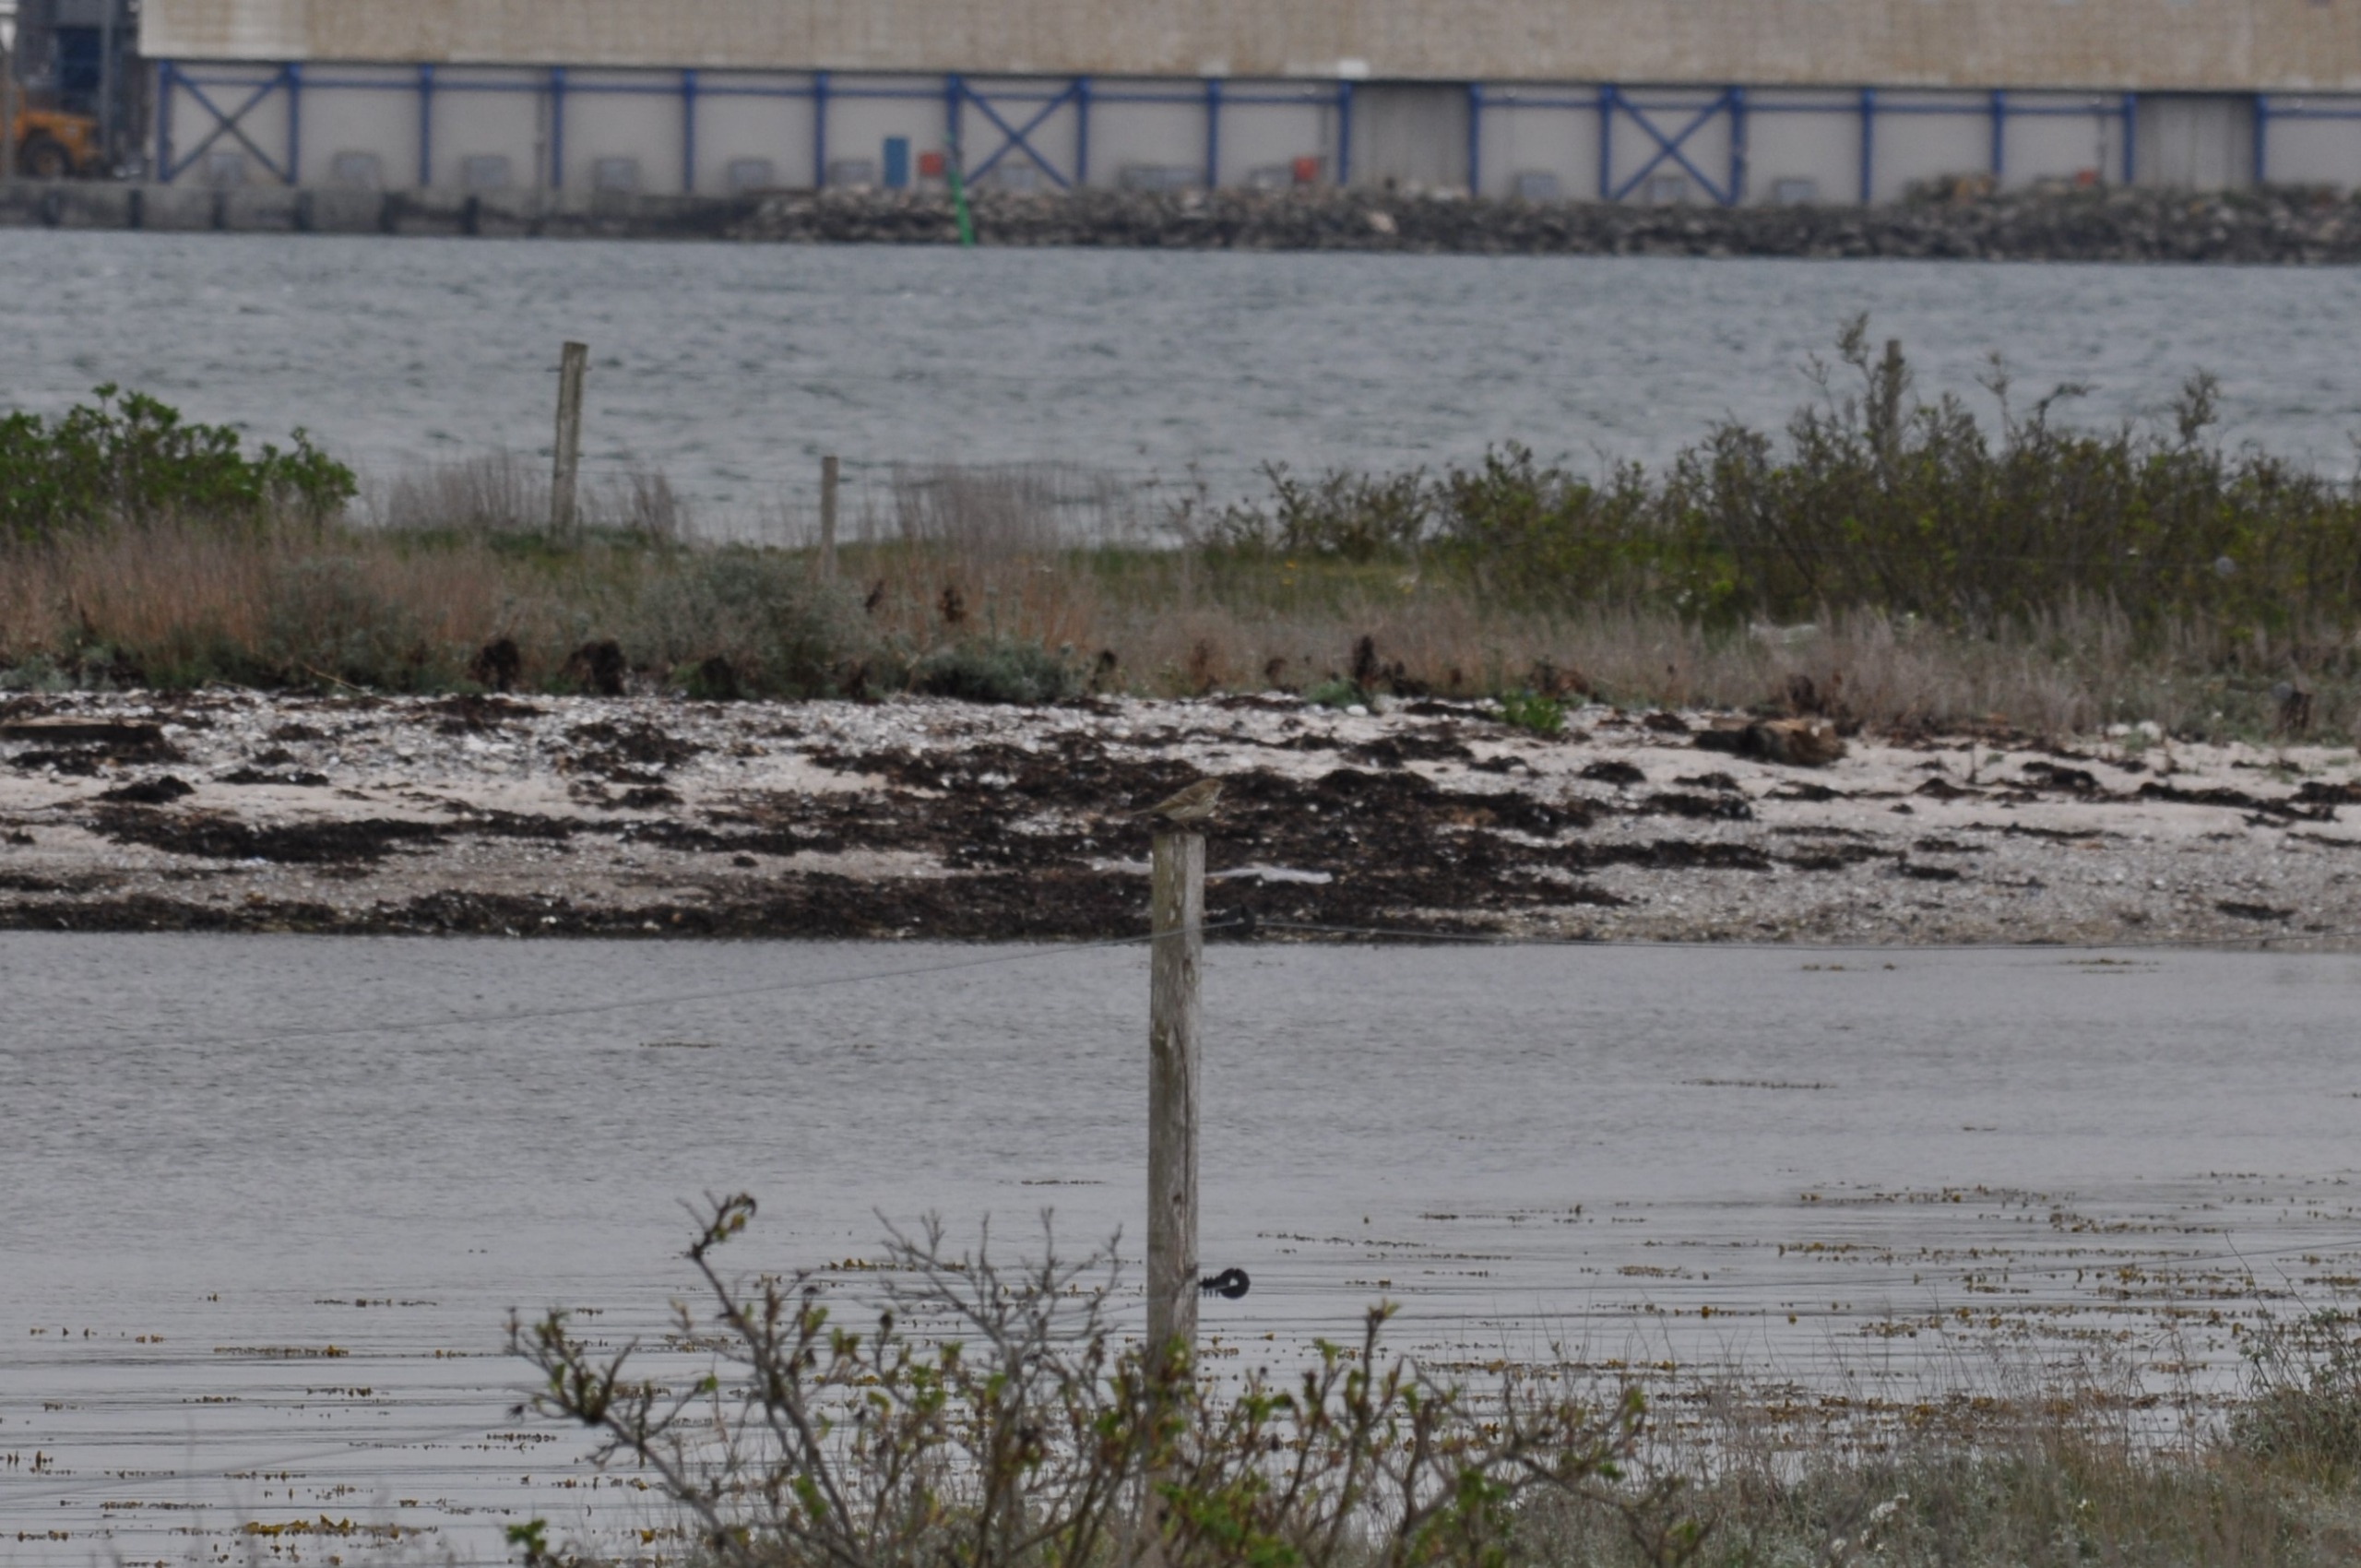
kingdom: Animalia
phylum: Chordata
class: Aves
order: Passeriformes
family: Motacillidae
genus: Anthus
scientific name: Anthus pratensis
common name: Engpiber
